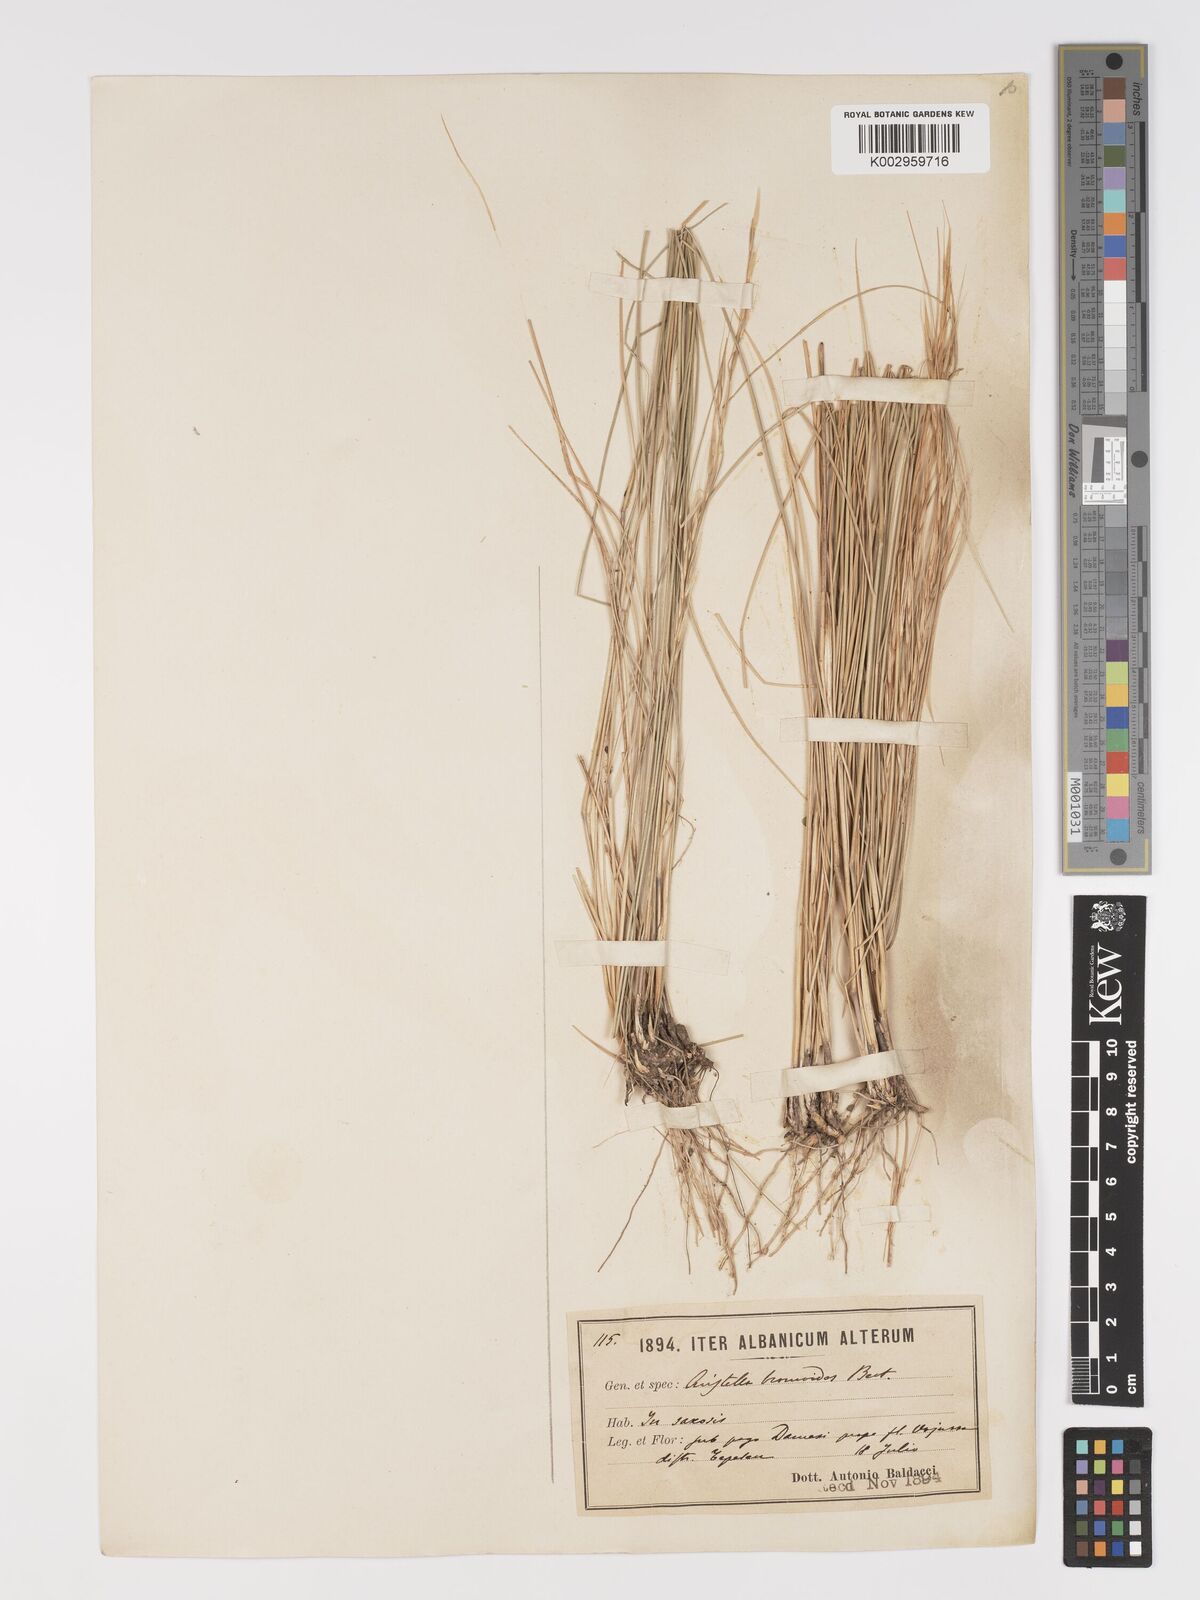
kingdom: Plantae
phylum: Tracheophyta
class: Liliopsida
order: Poales
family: Poaceae
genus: Achnatherum
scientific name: Achnatherum bromoides
